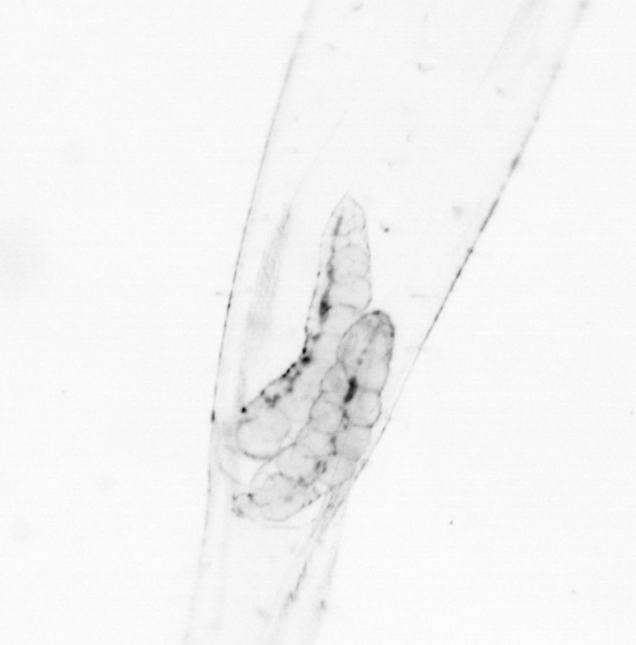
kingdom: Chromista
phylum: Ochrophyta
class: Bacillariophyceae
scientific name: Bacillariophyceae
